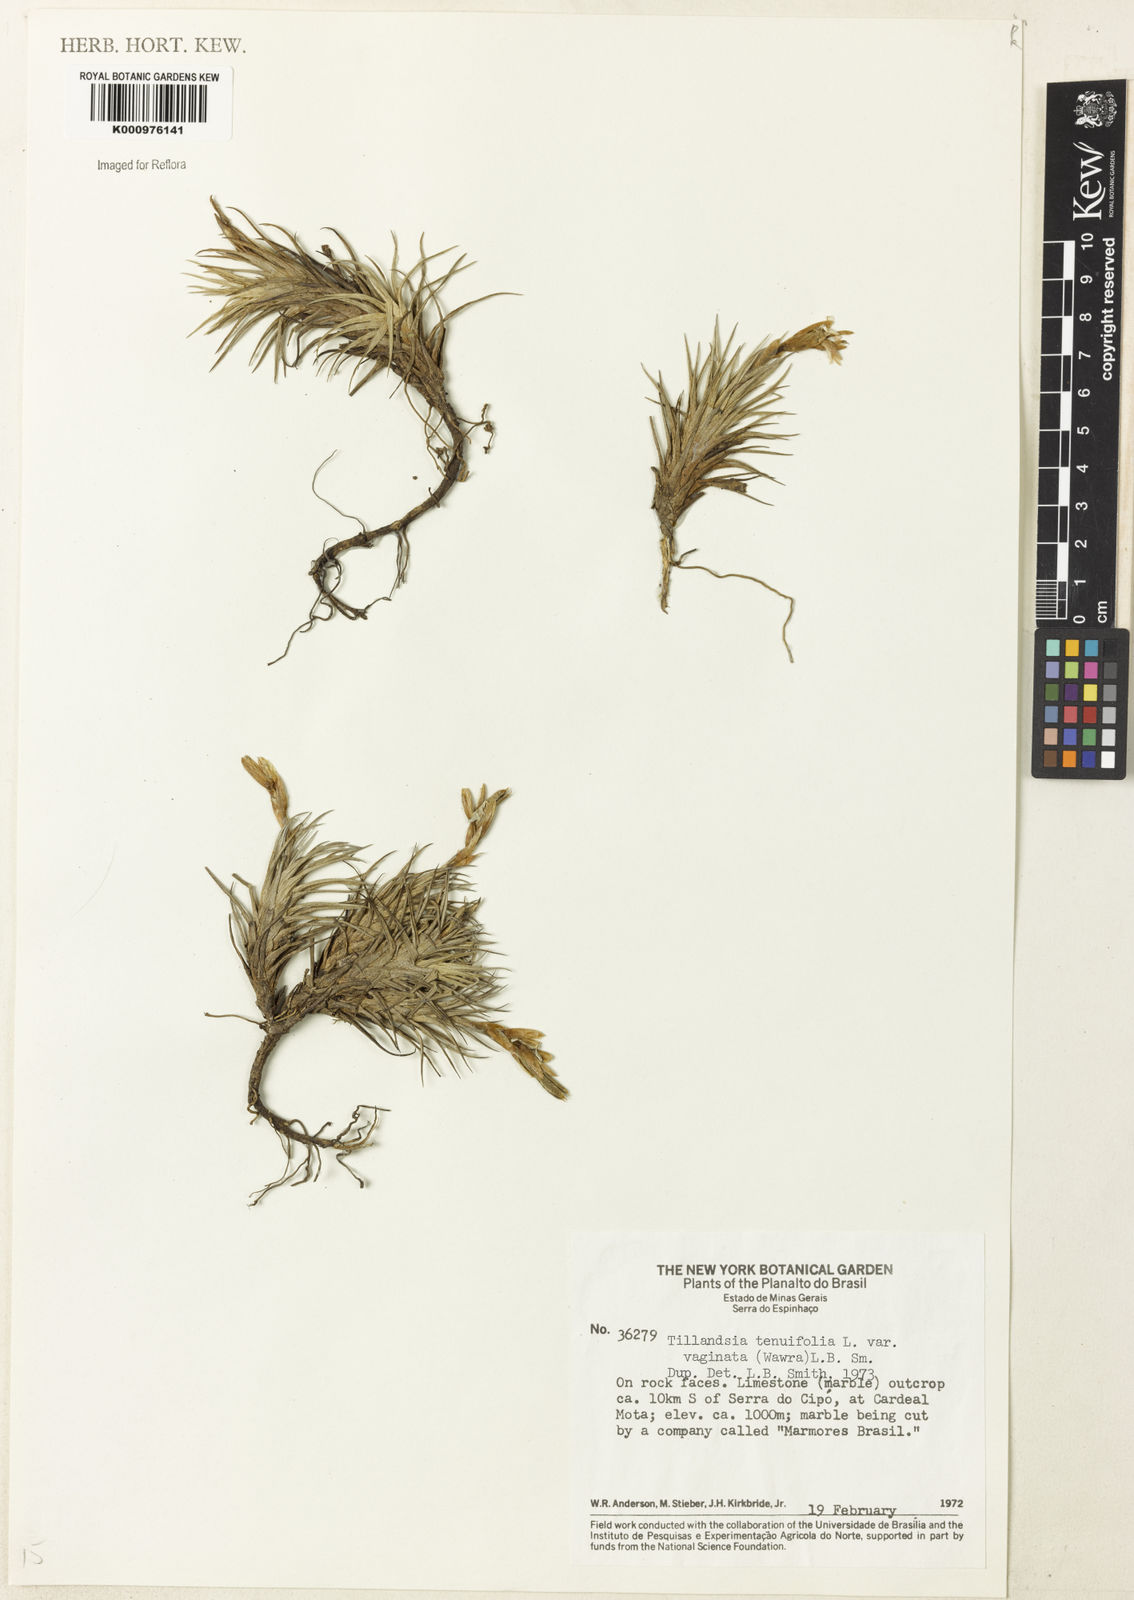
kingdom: Plantae
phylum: Tracheophyta
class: Liliopsida
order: Poales
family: Bromeliaceae
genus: Tillandsia
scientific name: Tillandsia tenuifolia
